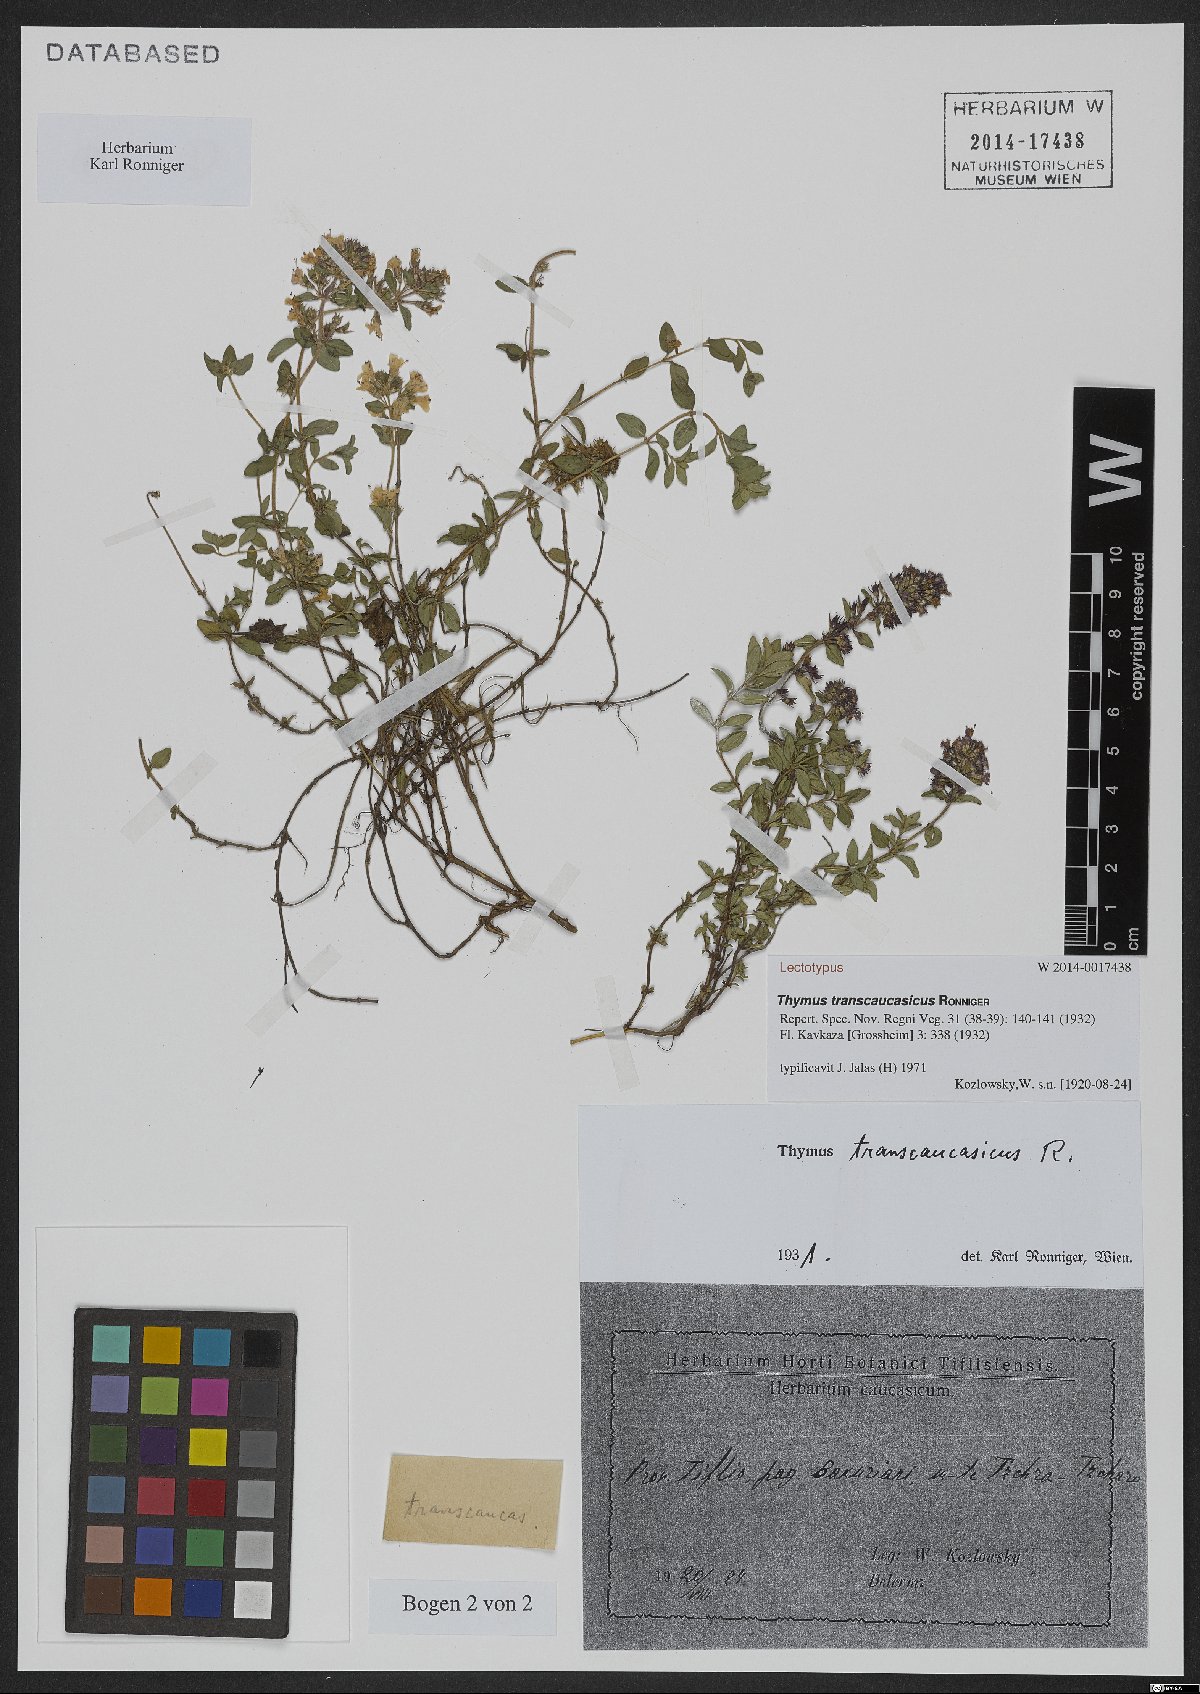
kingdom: Plantae
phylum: Tracheophyta
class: Magnoliopsida
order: Lamiales
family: Lamiaceae
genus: Thymus
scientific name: Thymus transcaucasicus
